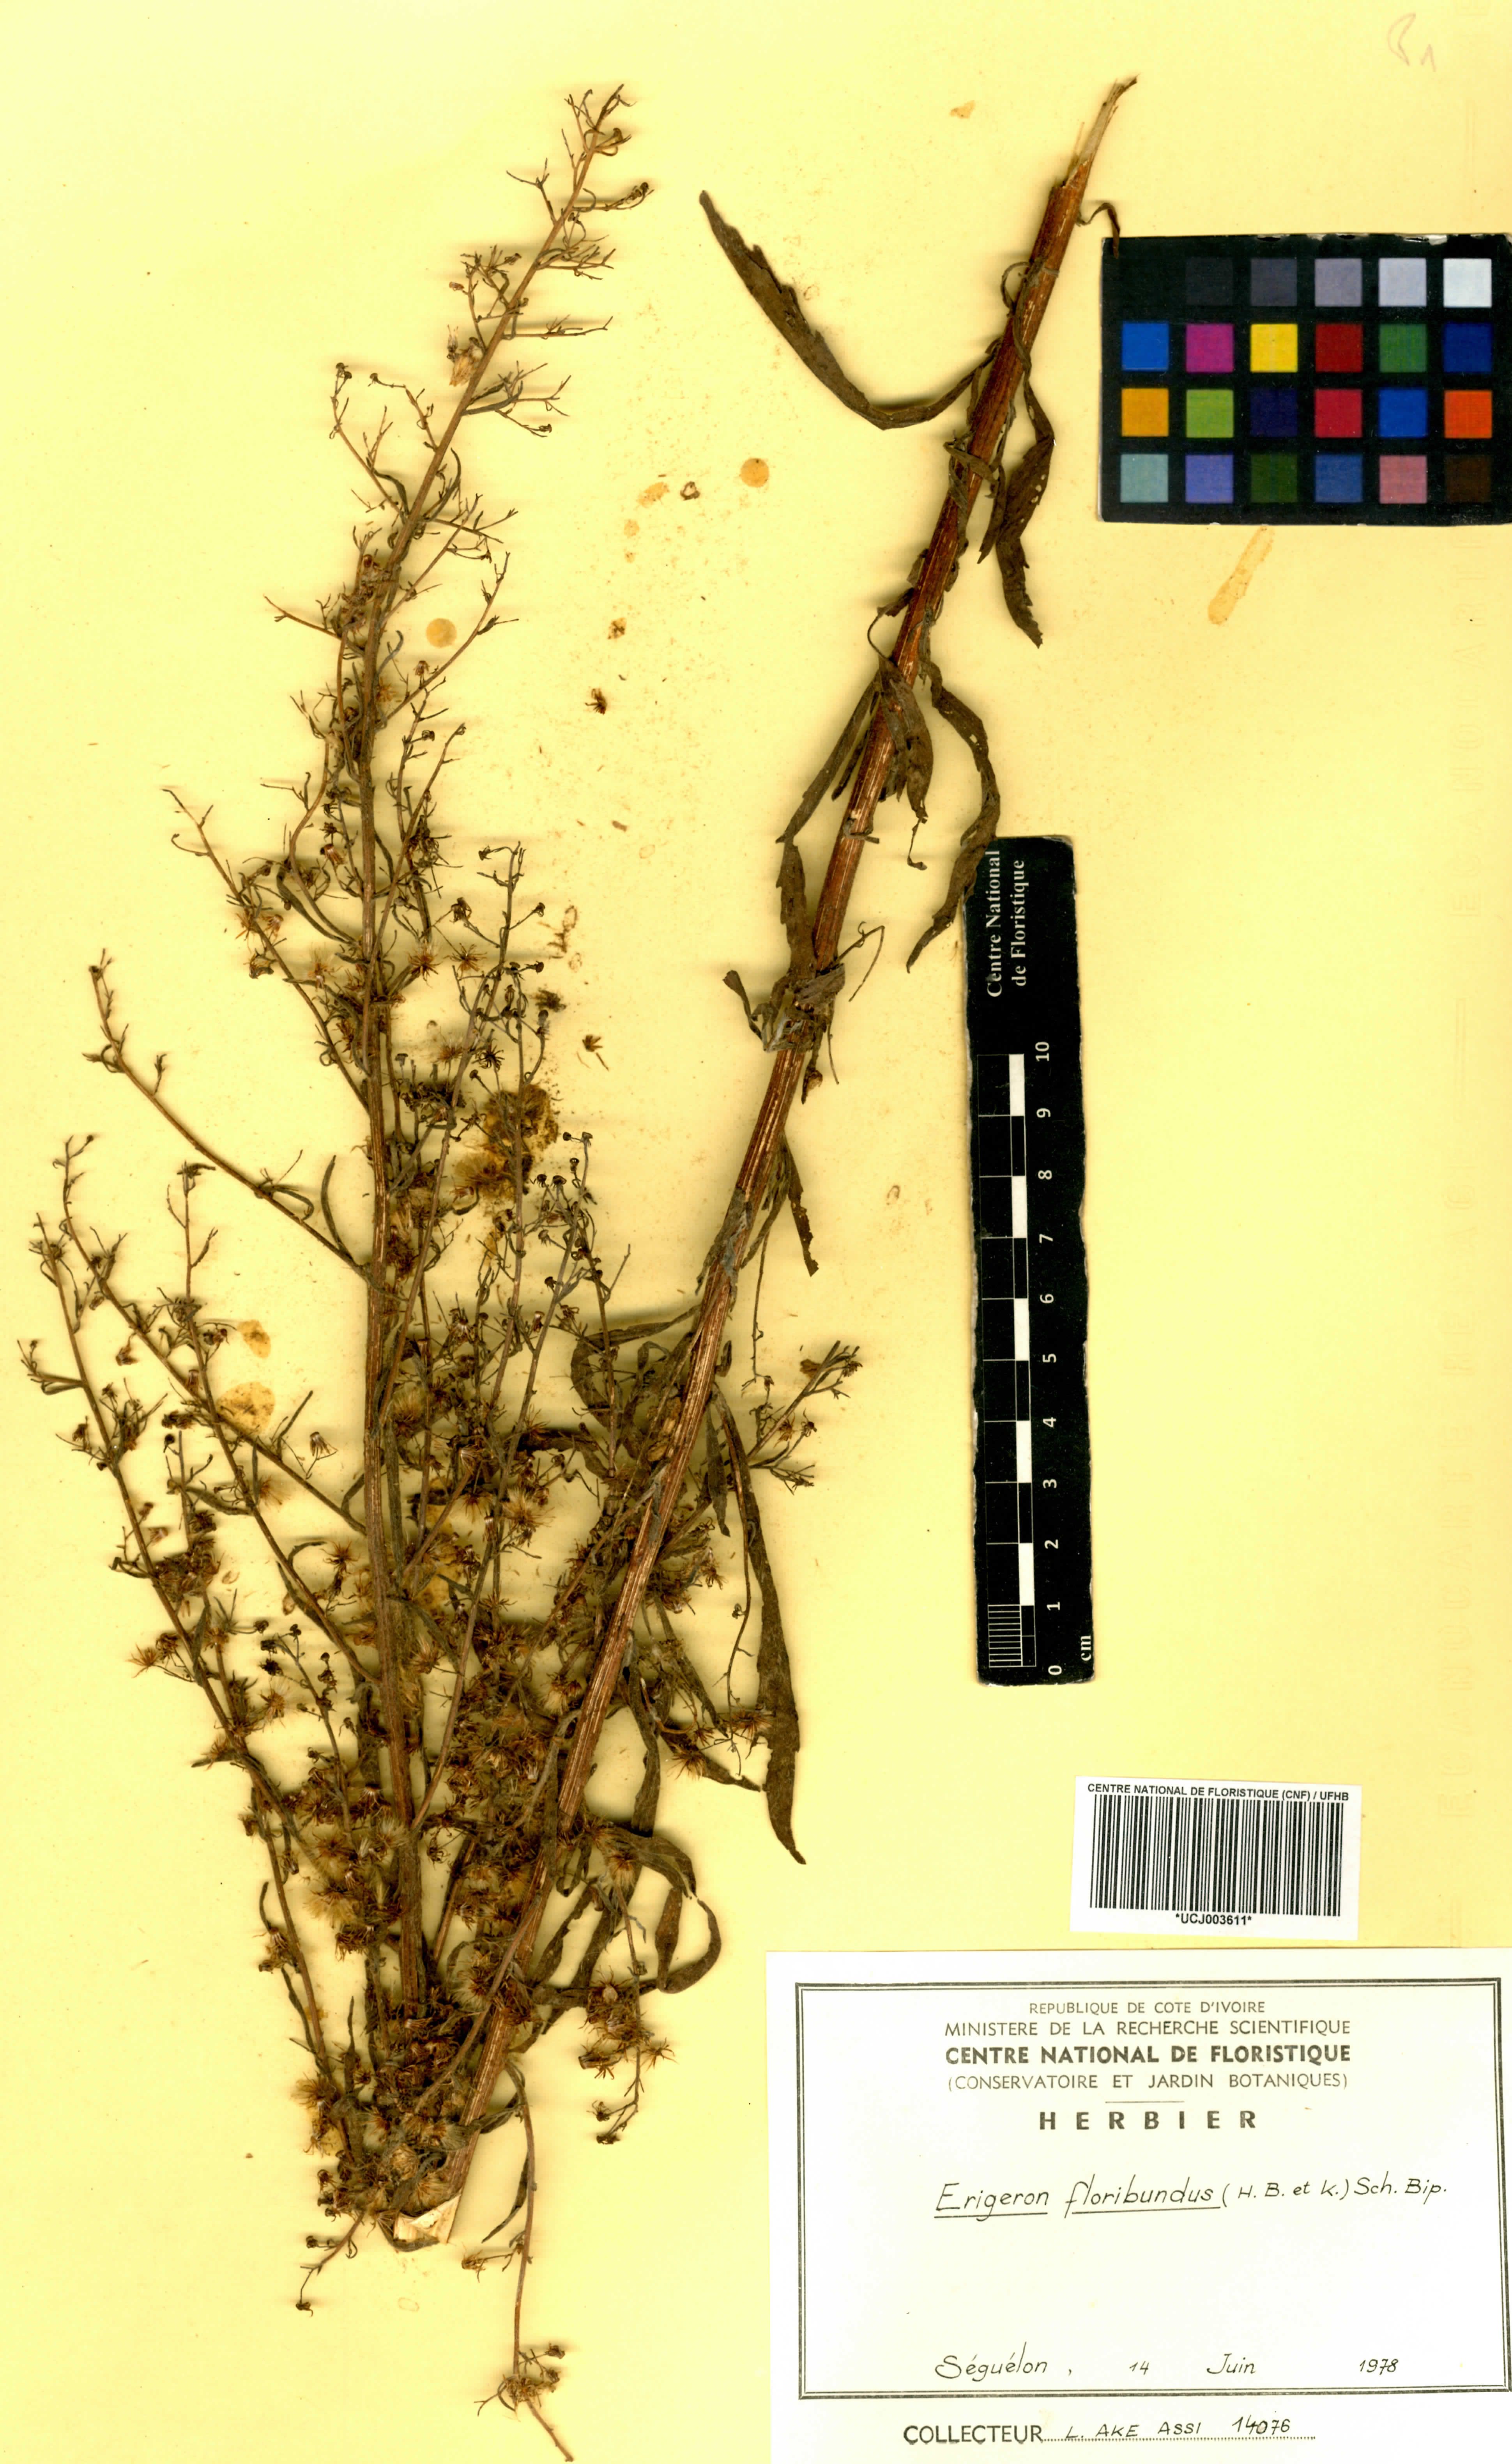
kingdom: Plantae
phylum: Tracheophyta
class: Magnoliopsida
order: Asterales
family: Asteraceae
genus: Erigeron
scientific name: Erigeron floribundus
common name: Bilbao fleabane
